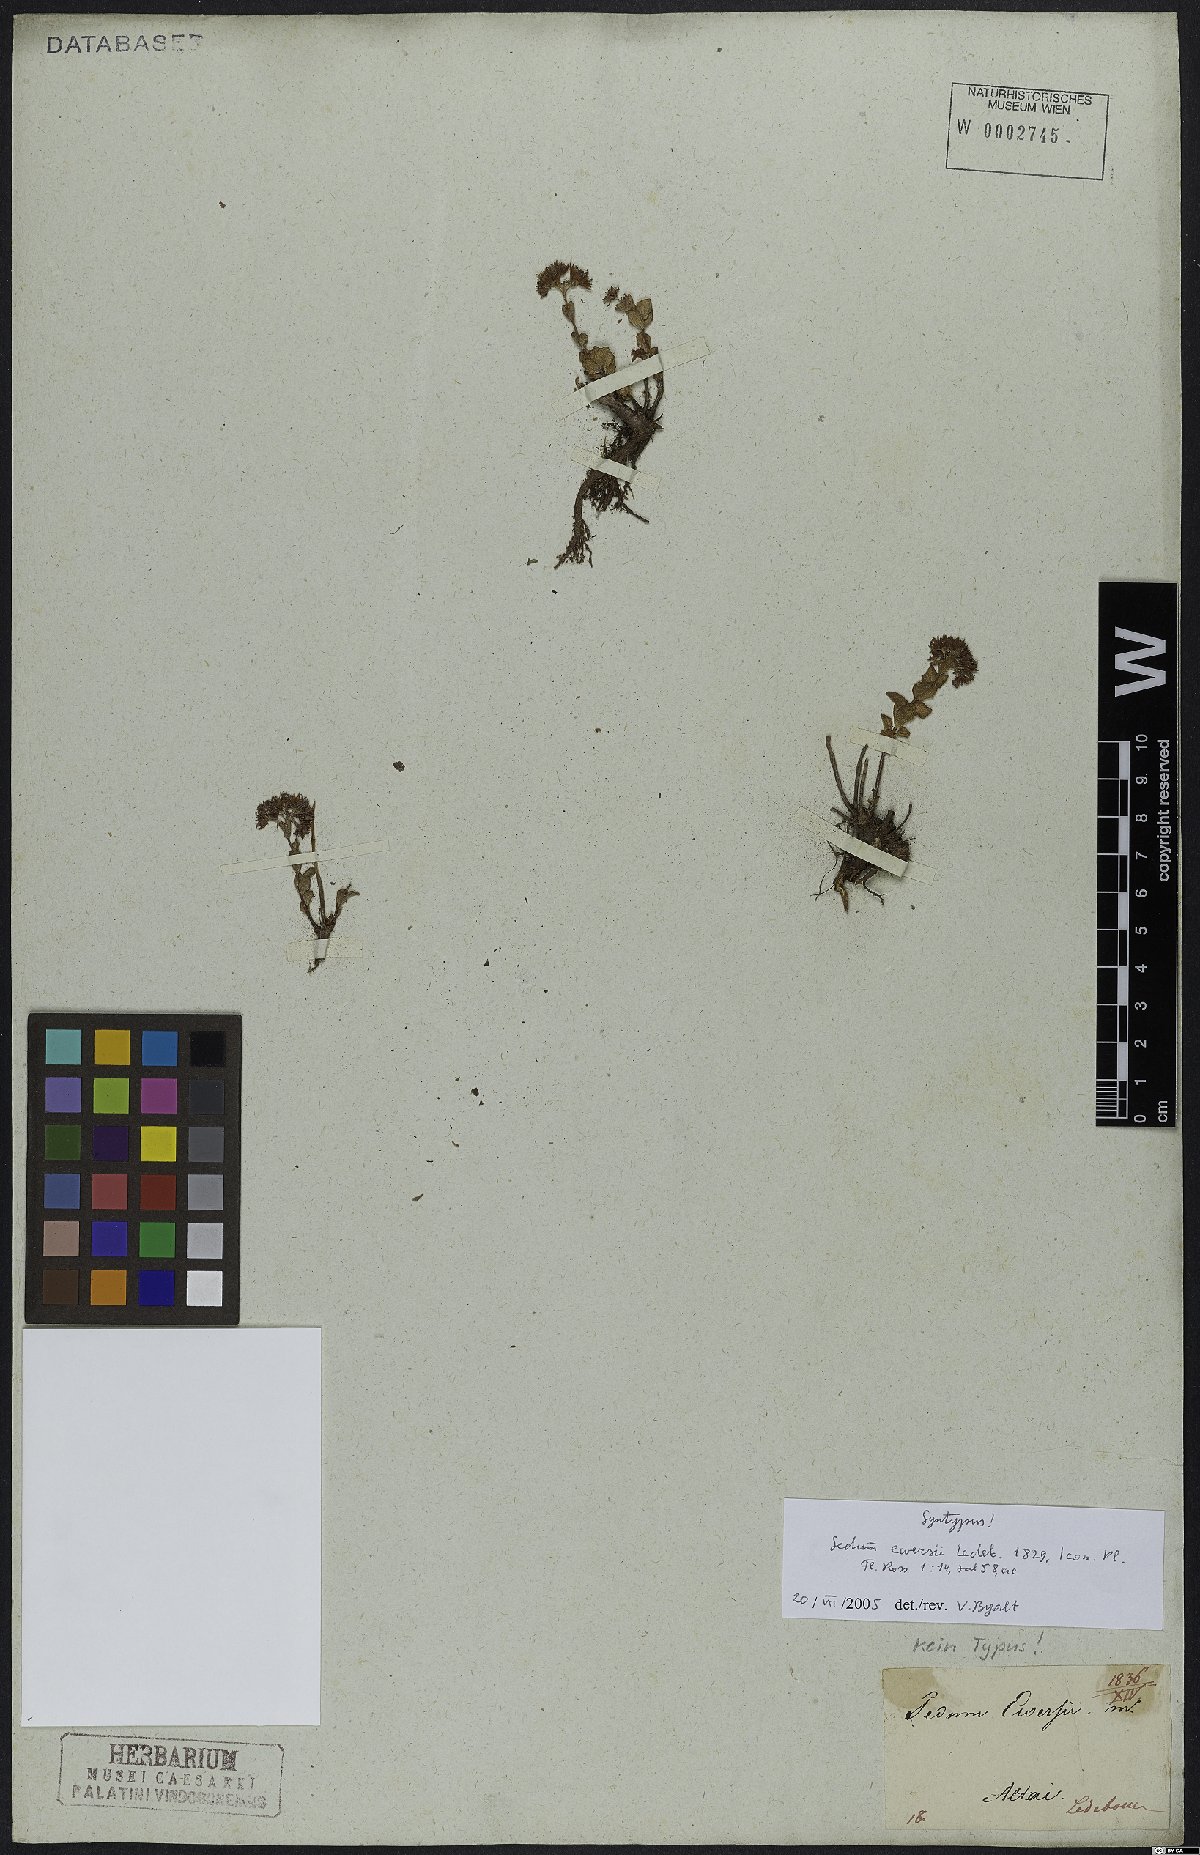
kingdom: Plantae
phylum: Tracheophyta
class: Magnoliopsida
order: Saxifragales
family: Crassulaceae
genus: Hylotelephium
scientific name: Hylotelephium ewersii
